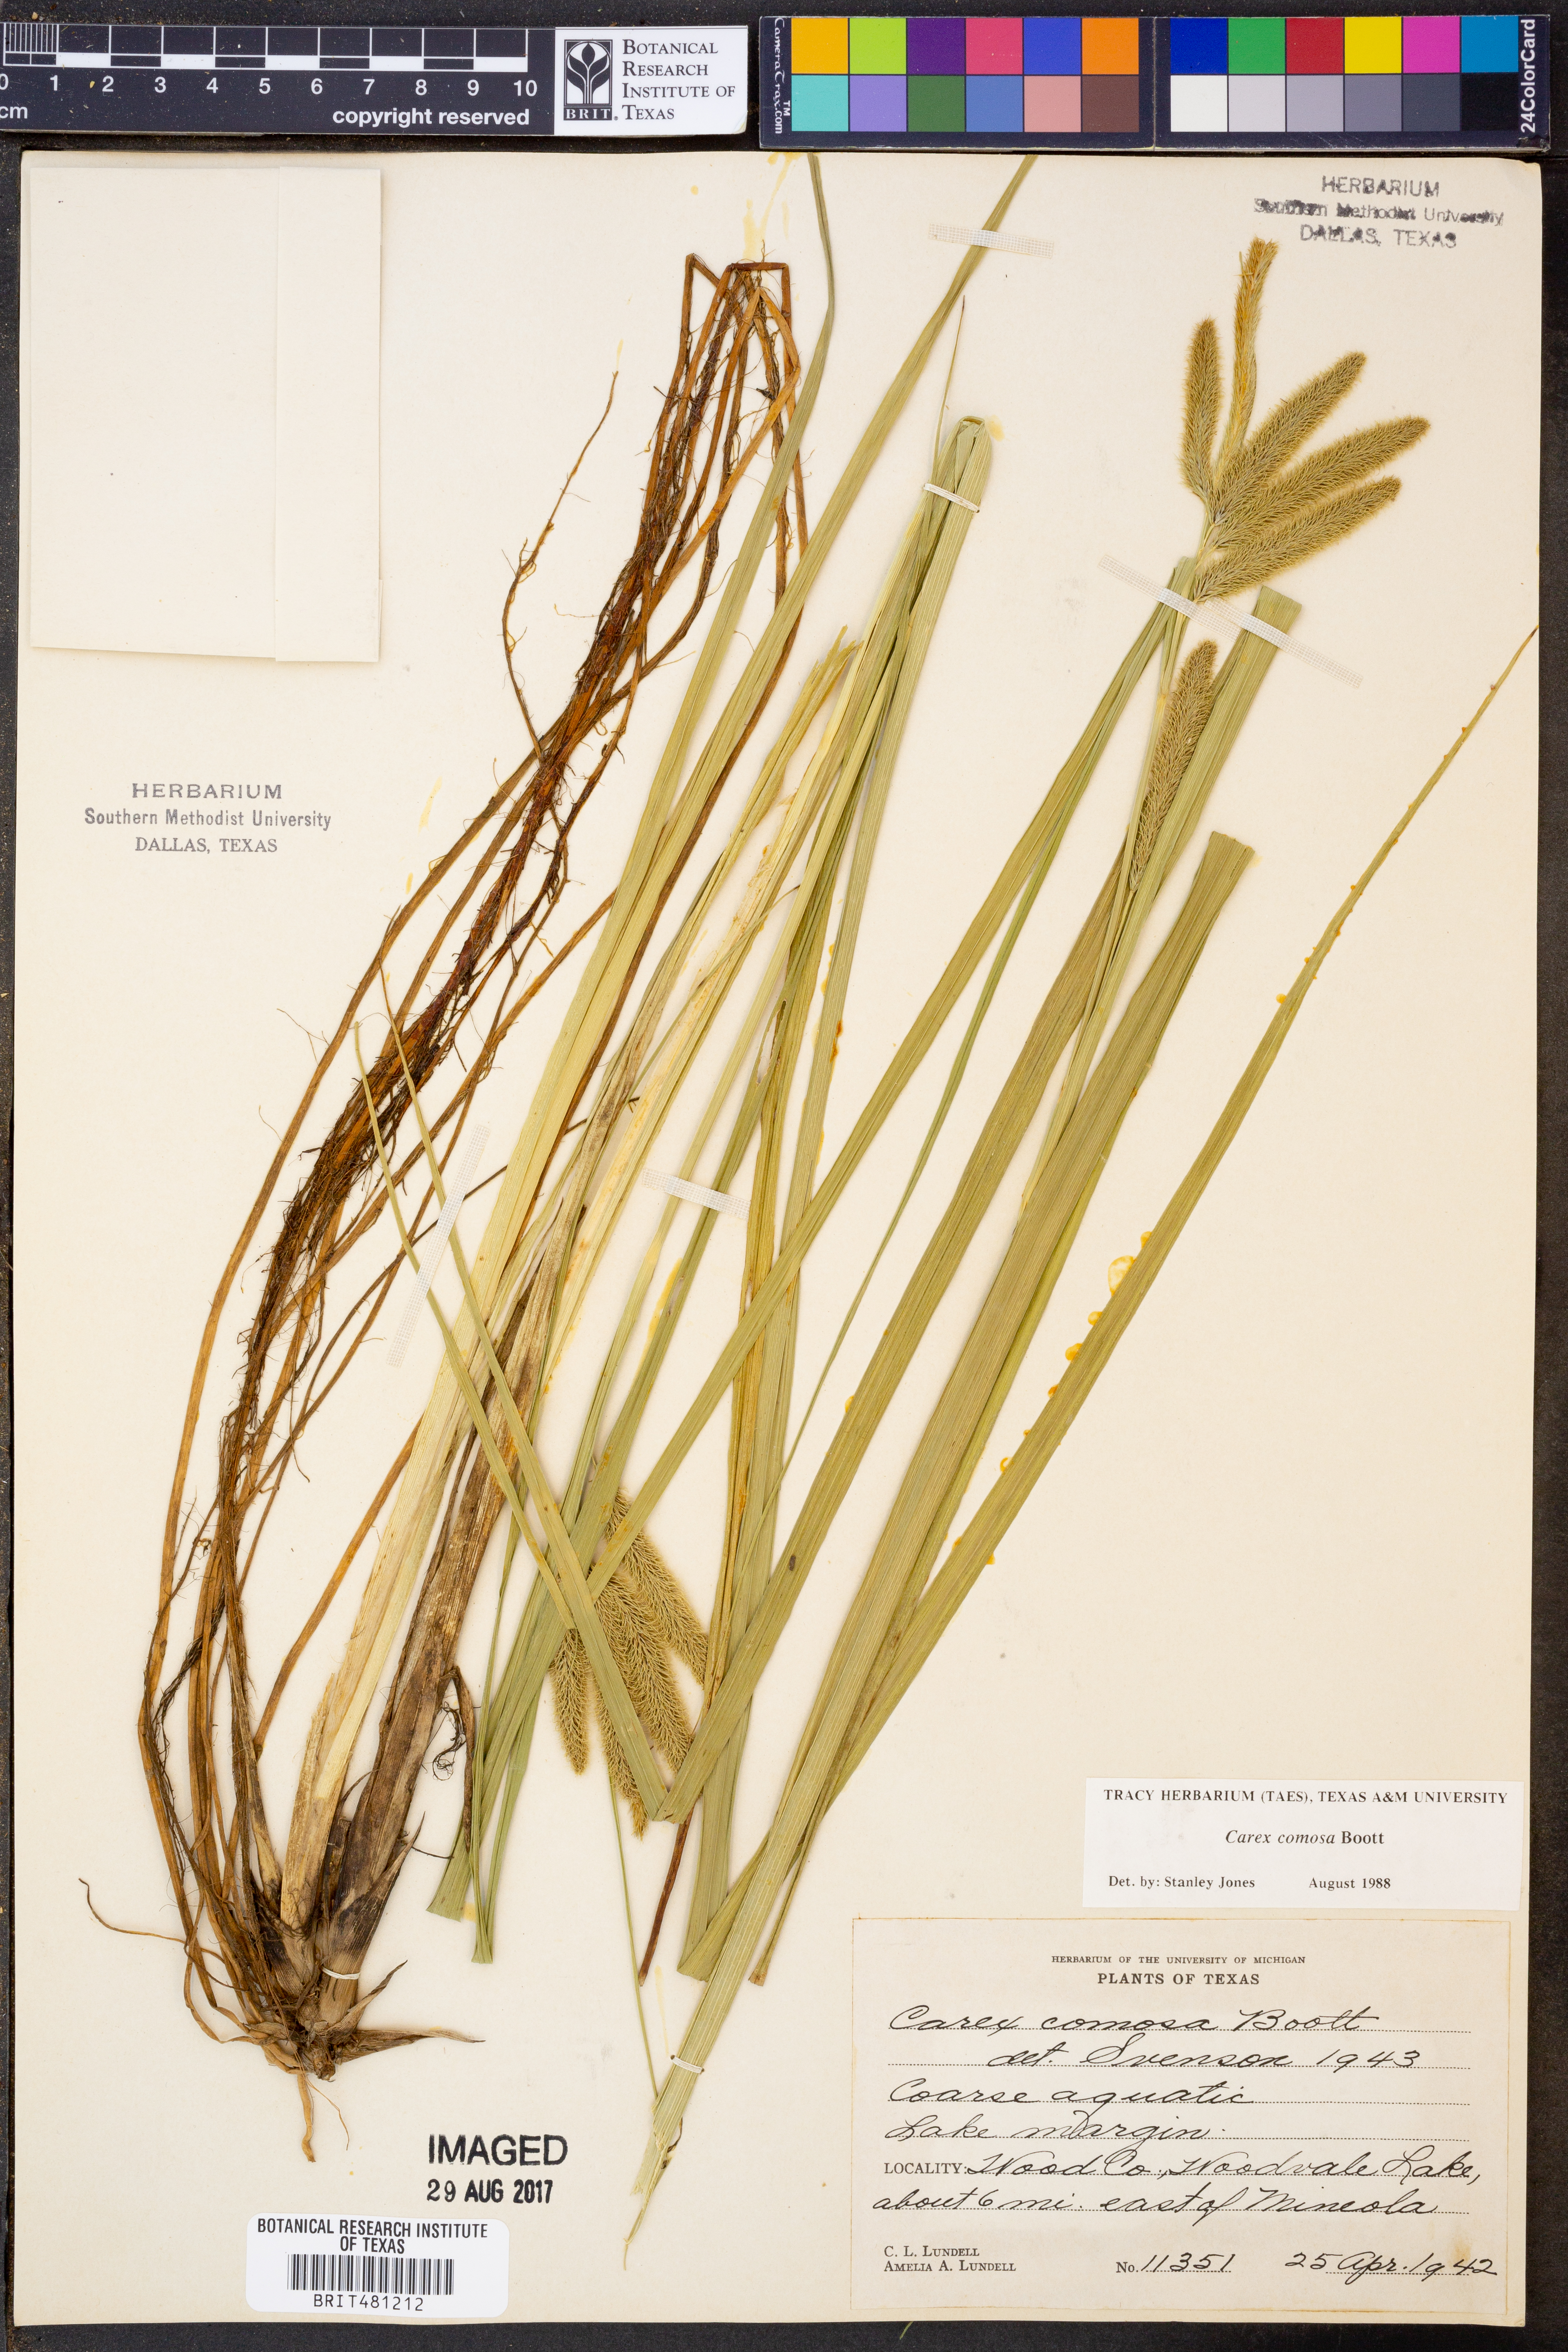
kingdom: Plantae
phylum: Tracheophyta
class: Liliopsida
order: Poales
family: Cyperaceae
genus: Carex
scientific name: Carex comosa
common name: Bristly sedge
